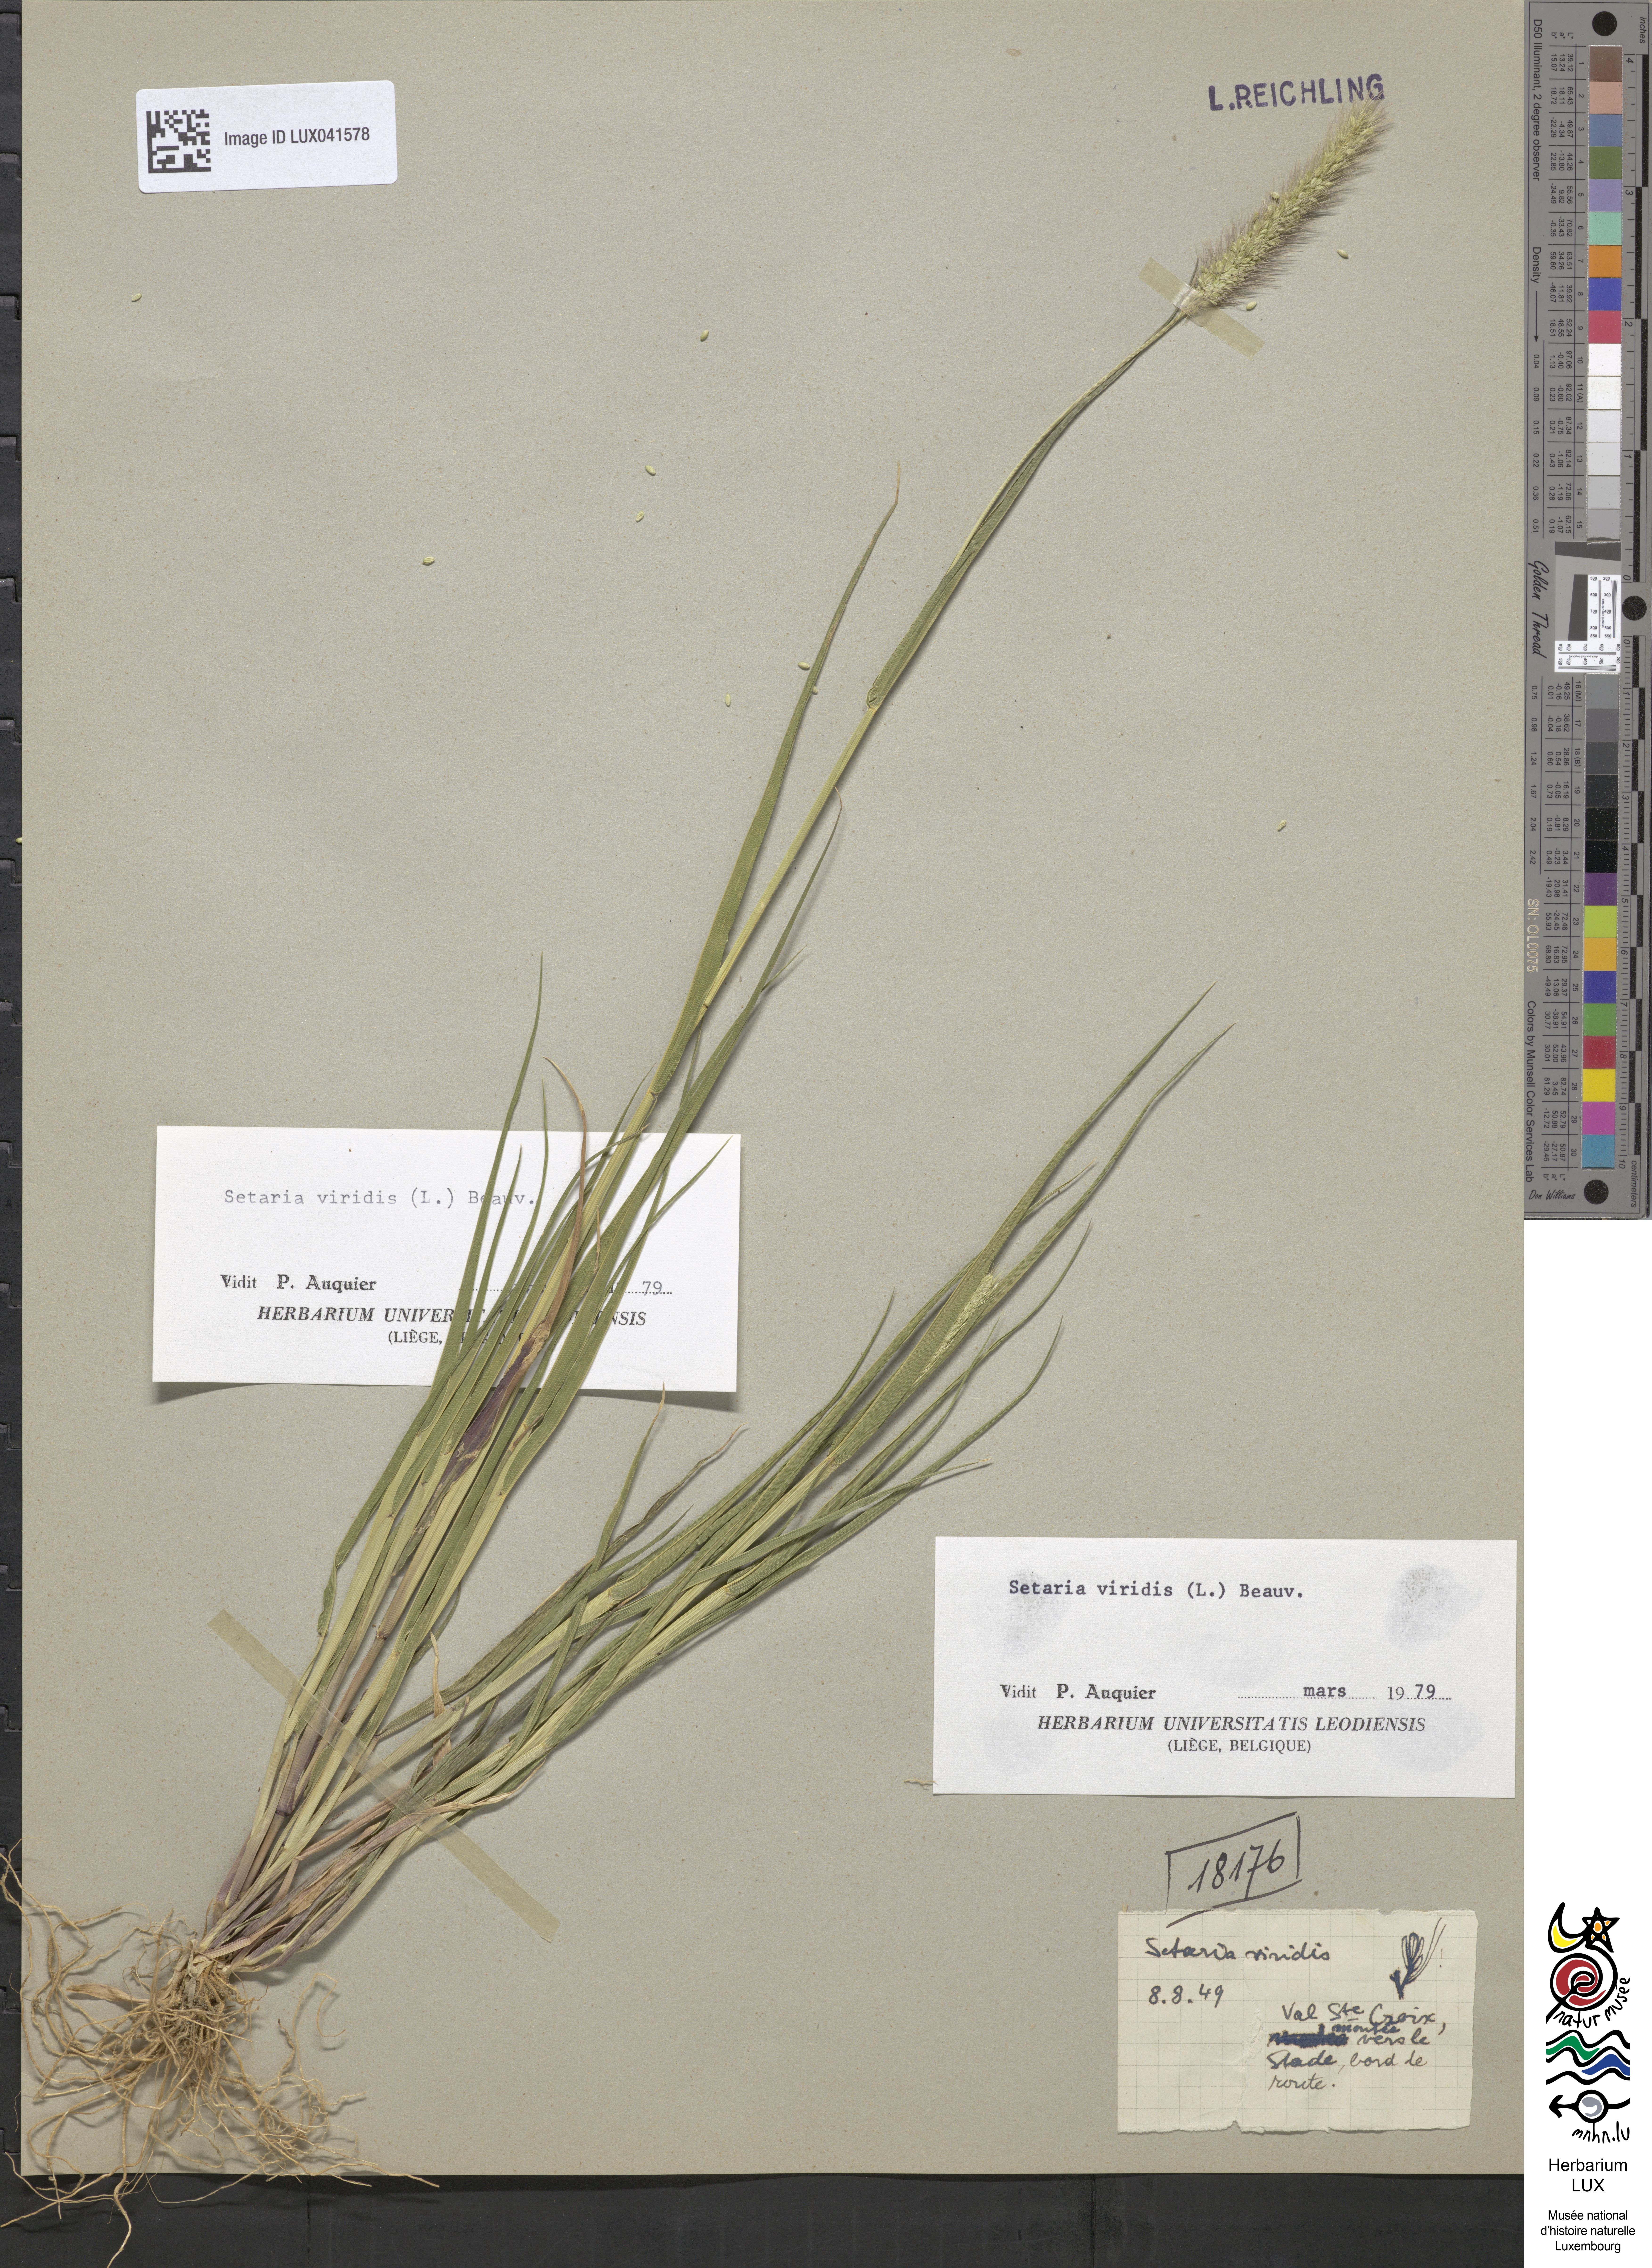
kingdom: Plantae
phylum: Tracheophyta
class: Liliopsida
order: Poales
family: Poaceae
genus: Setaria
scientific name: Setaria viridis
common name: Green bristlegrass
